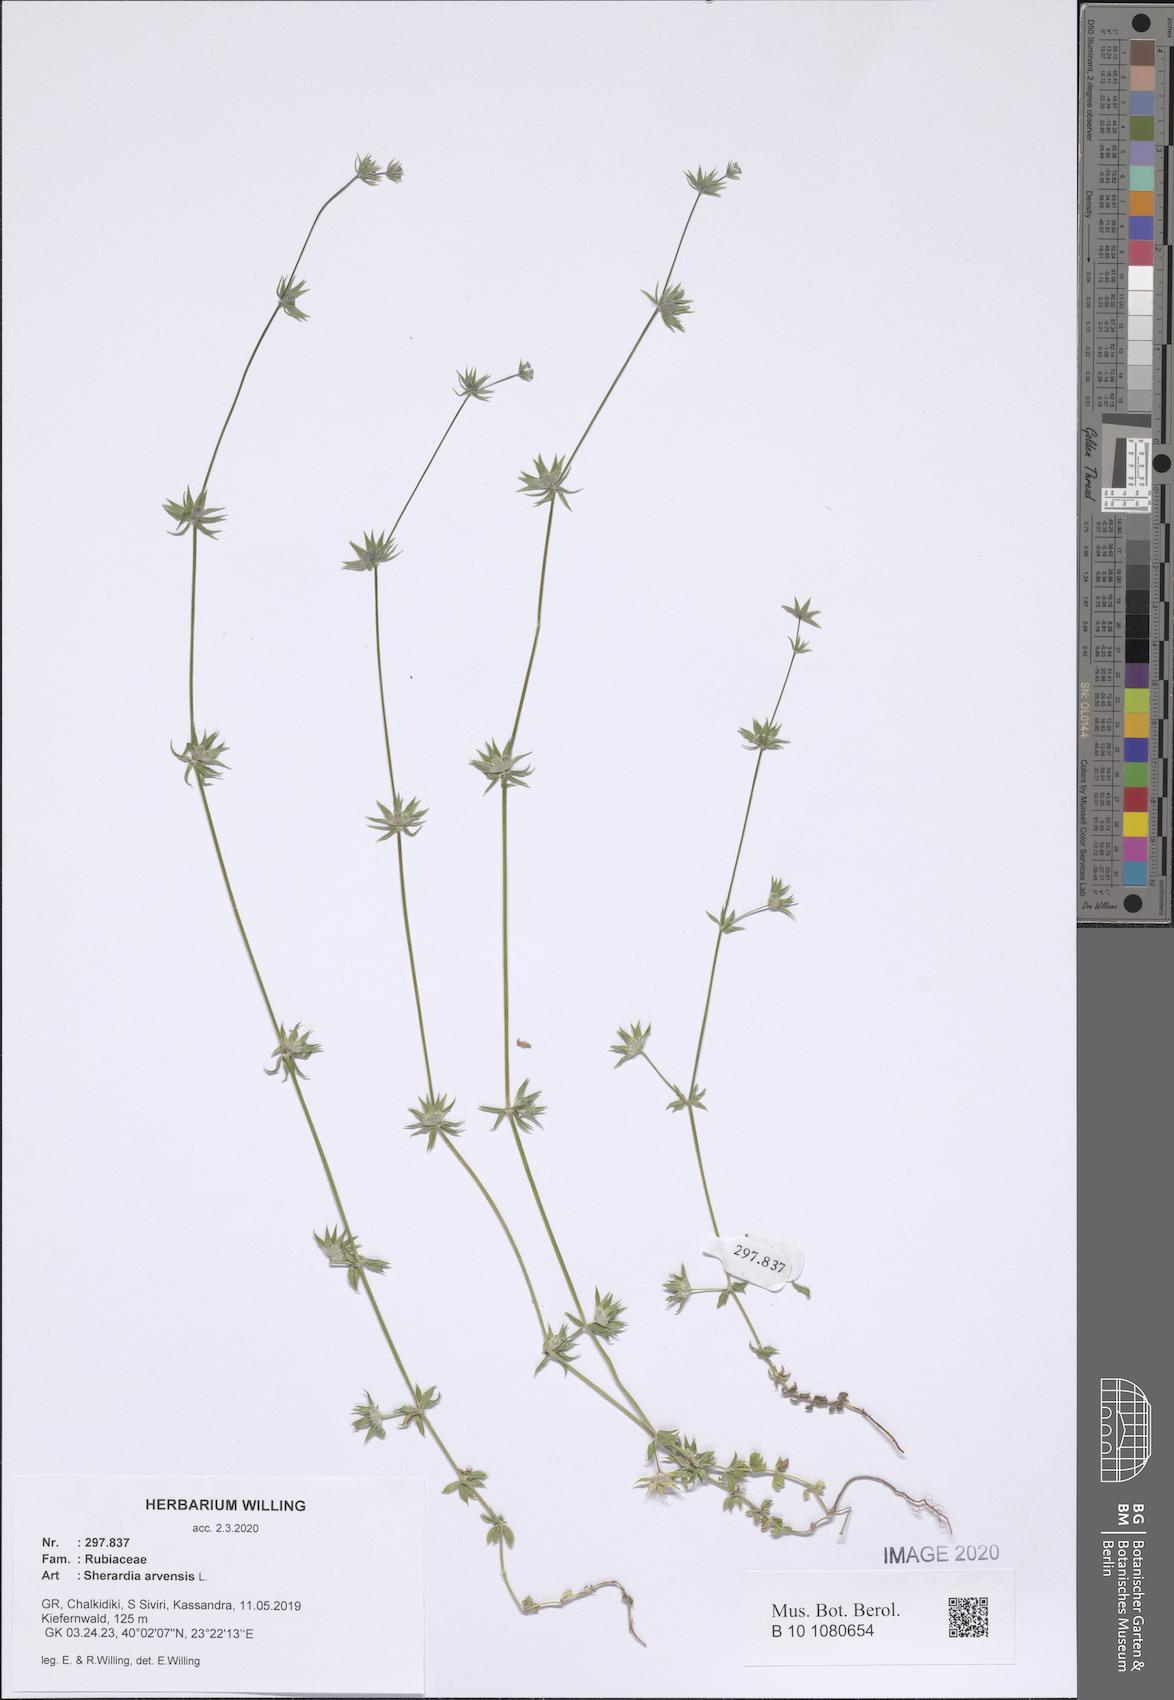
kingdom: Plantae
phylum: Tracheophyta
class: Magnoliopsida
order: Gentianales
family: Rubiaceae
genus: Sherardia
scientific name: Sherardia arvensis
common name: Field madder
